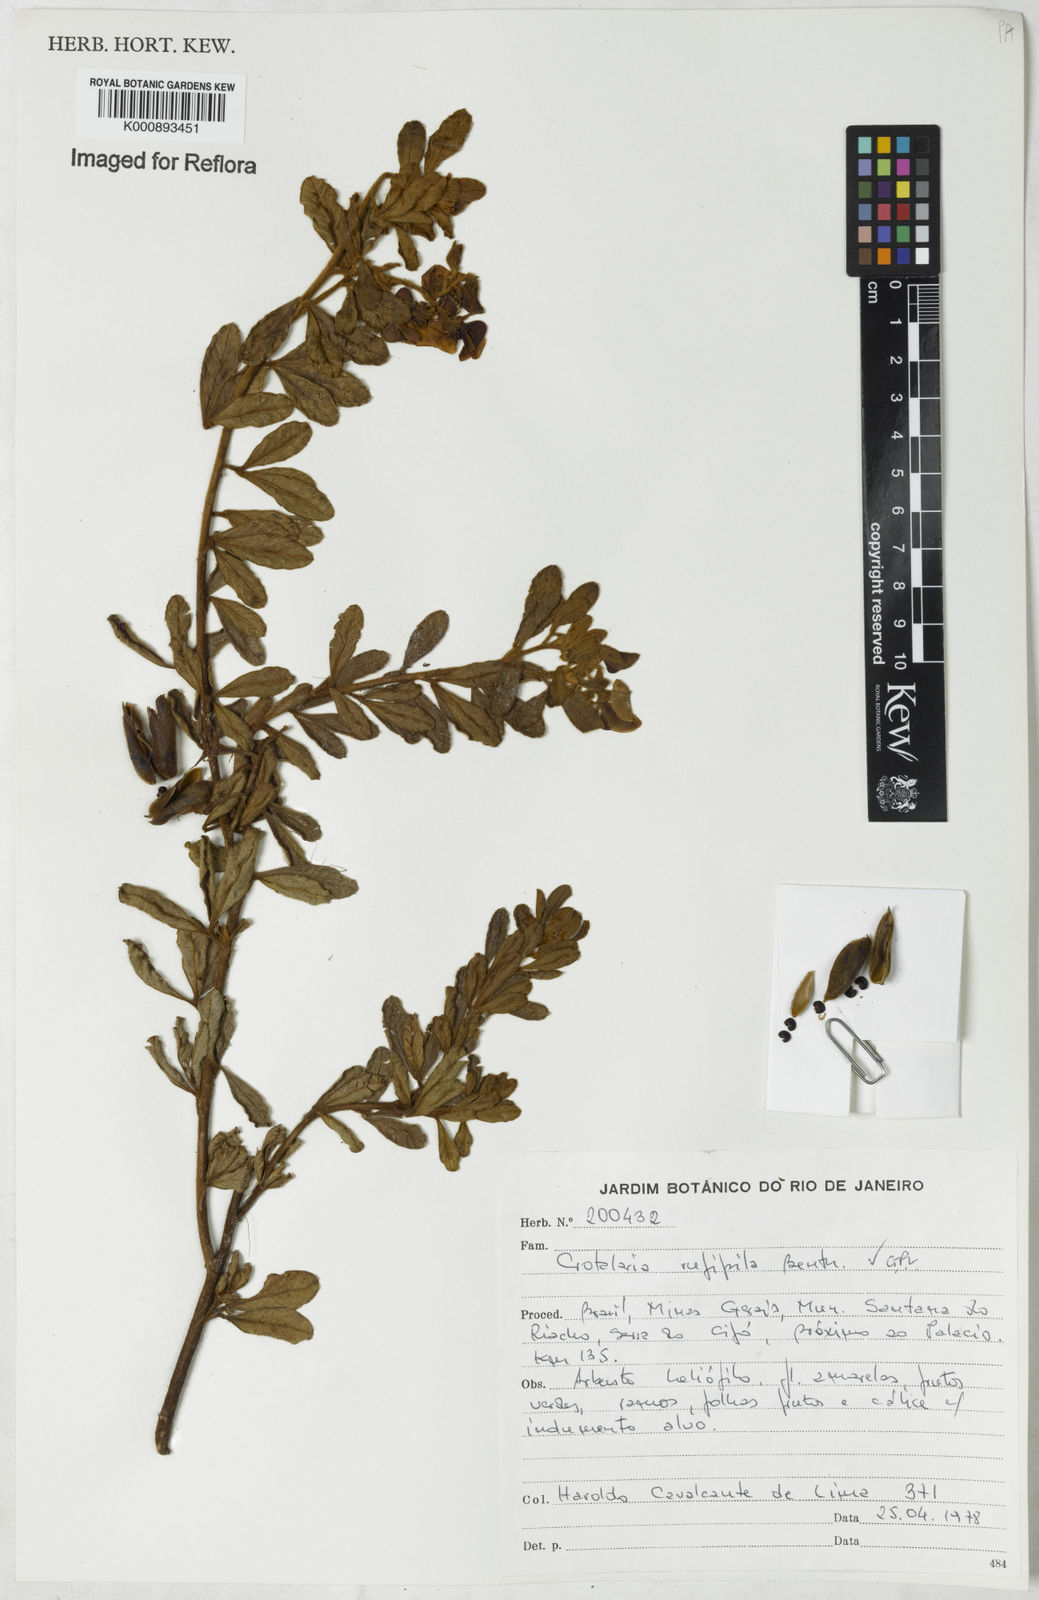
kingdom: Plantae
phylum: Tracheophyta
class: Magnoliopsida
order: Fabales
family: Fabaceae
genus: Crotalaria
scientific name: Crotalaria rufipila
